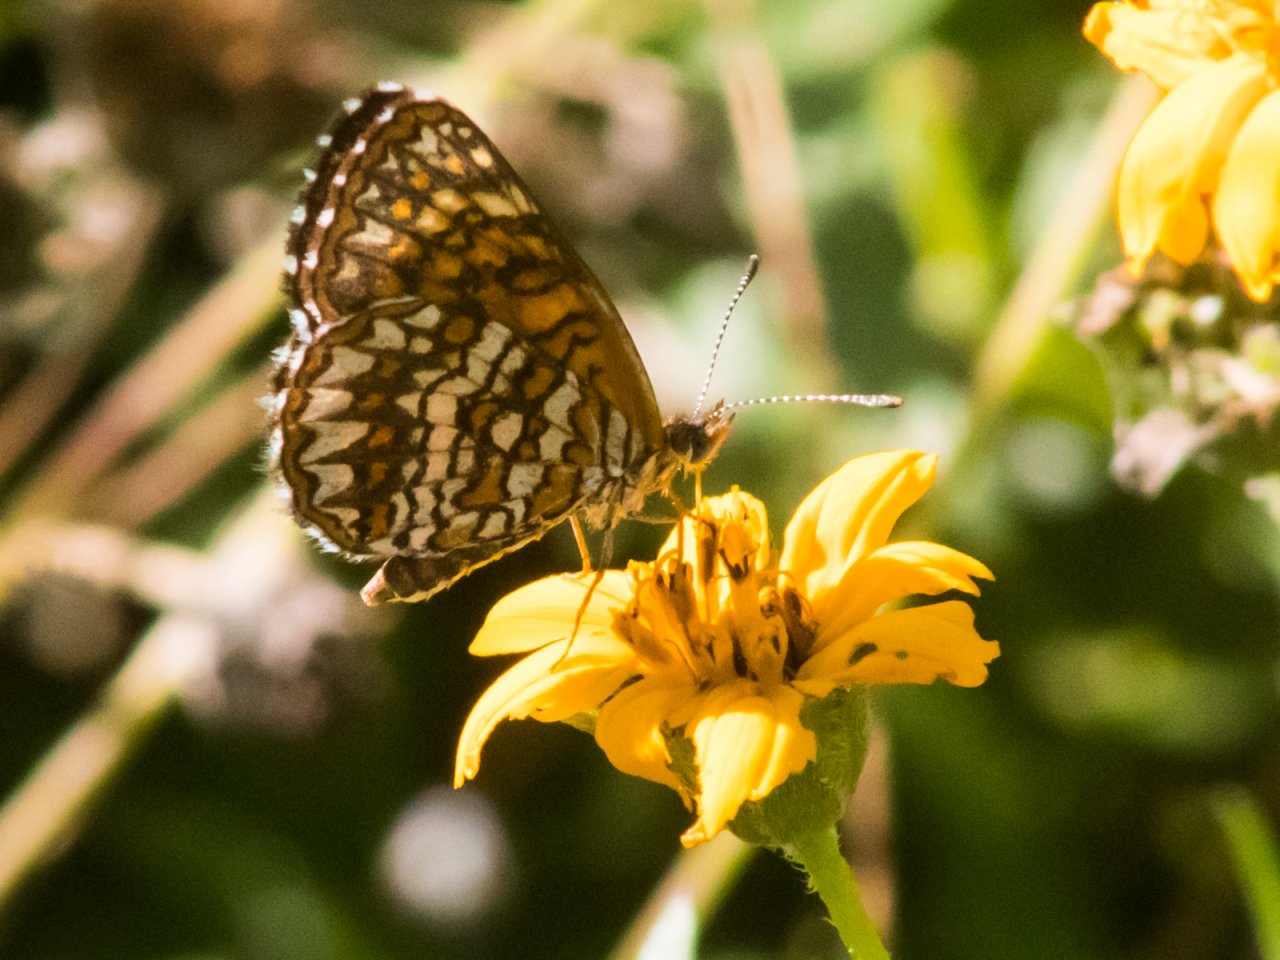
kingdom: Animalia
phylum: Arthropoda
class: Insecta
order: Lepidoptera
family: Nymphalidae
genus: Texola
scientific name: Texola elada
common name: Elada Checkerspot
